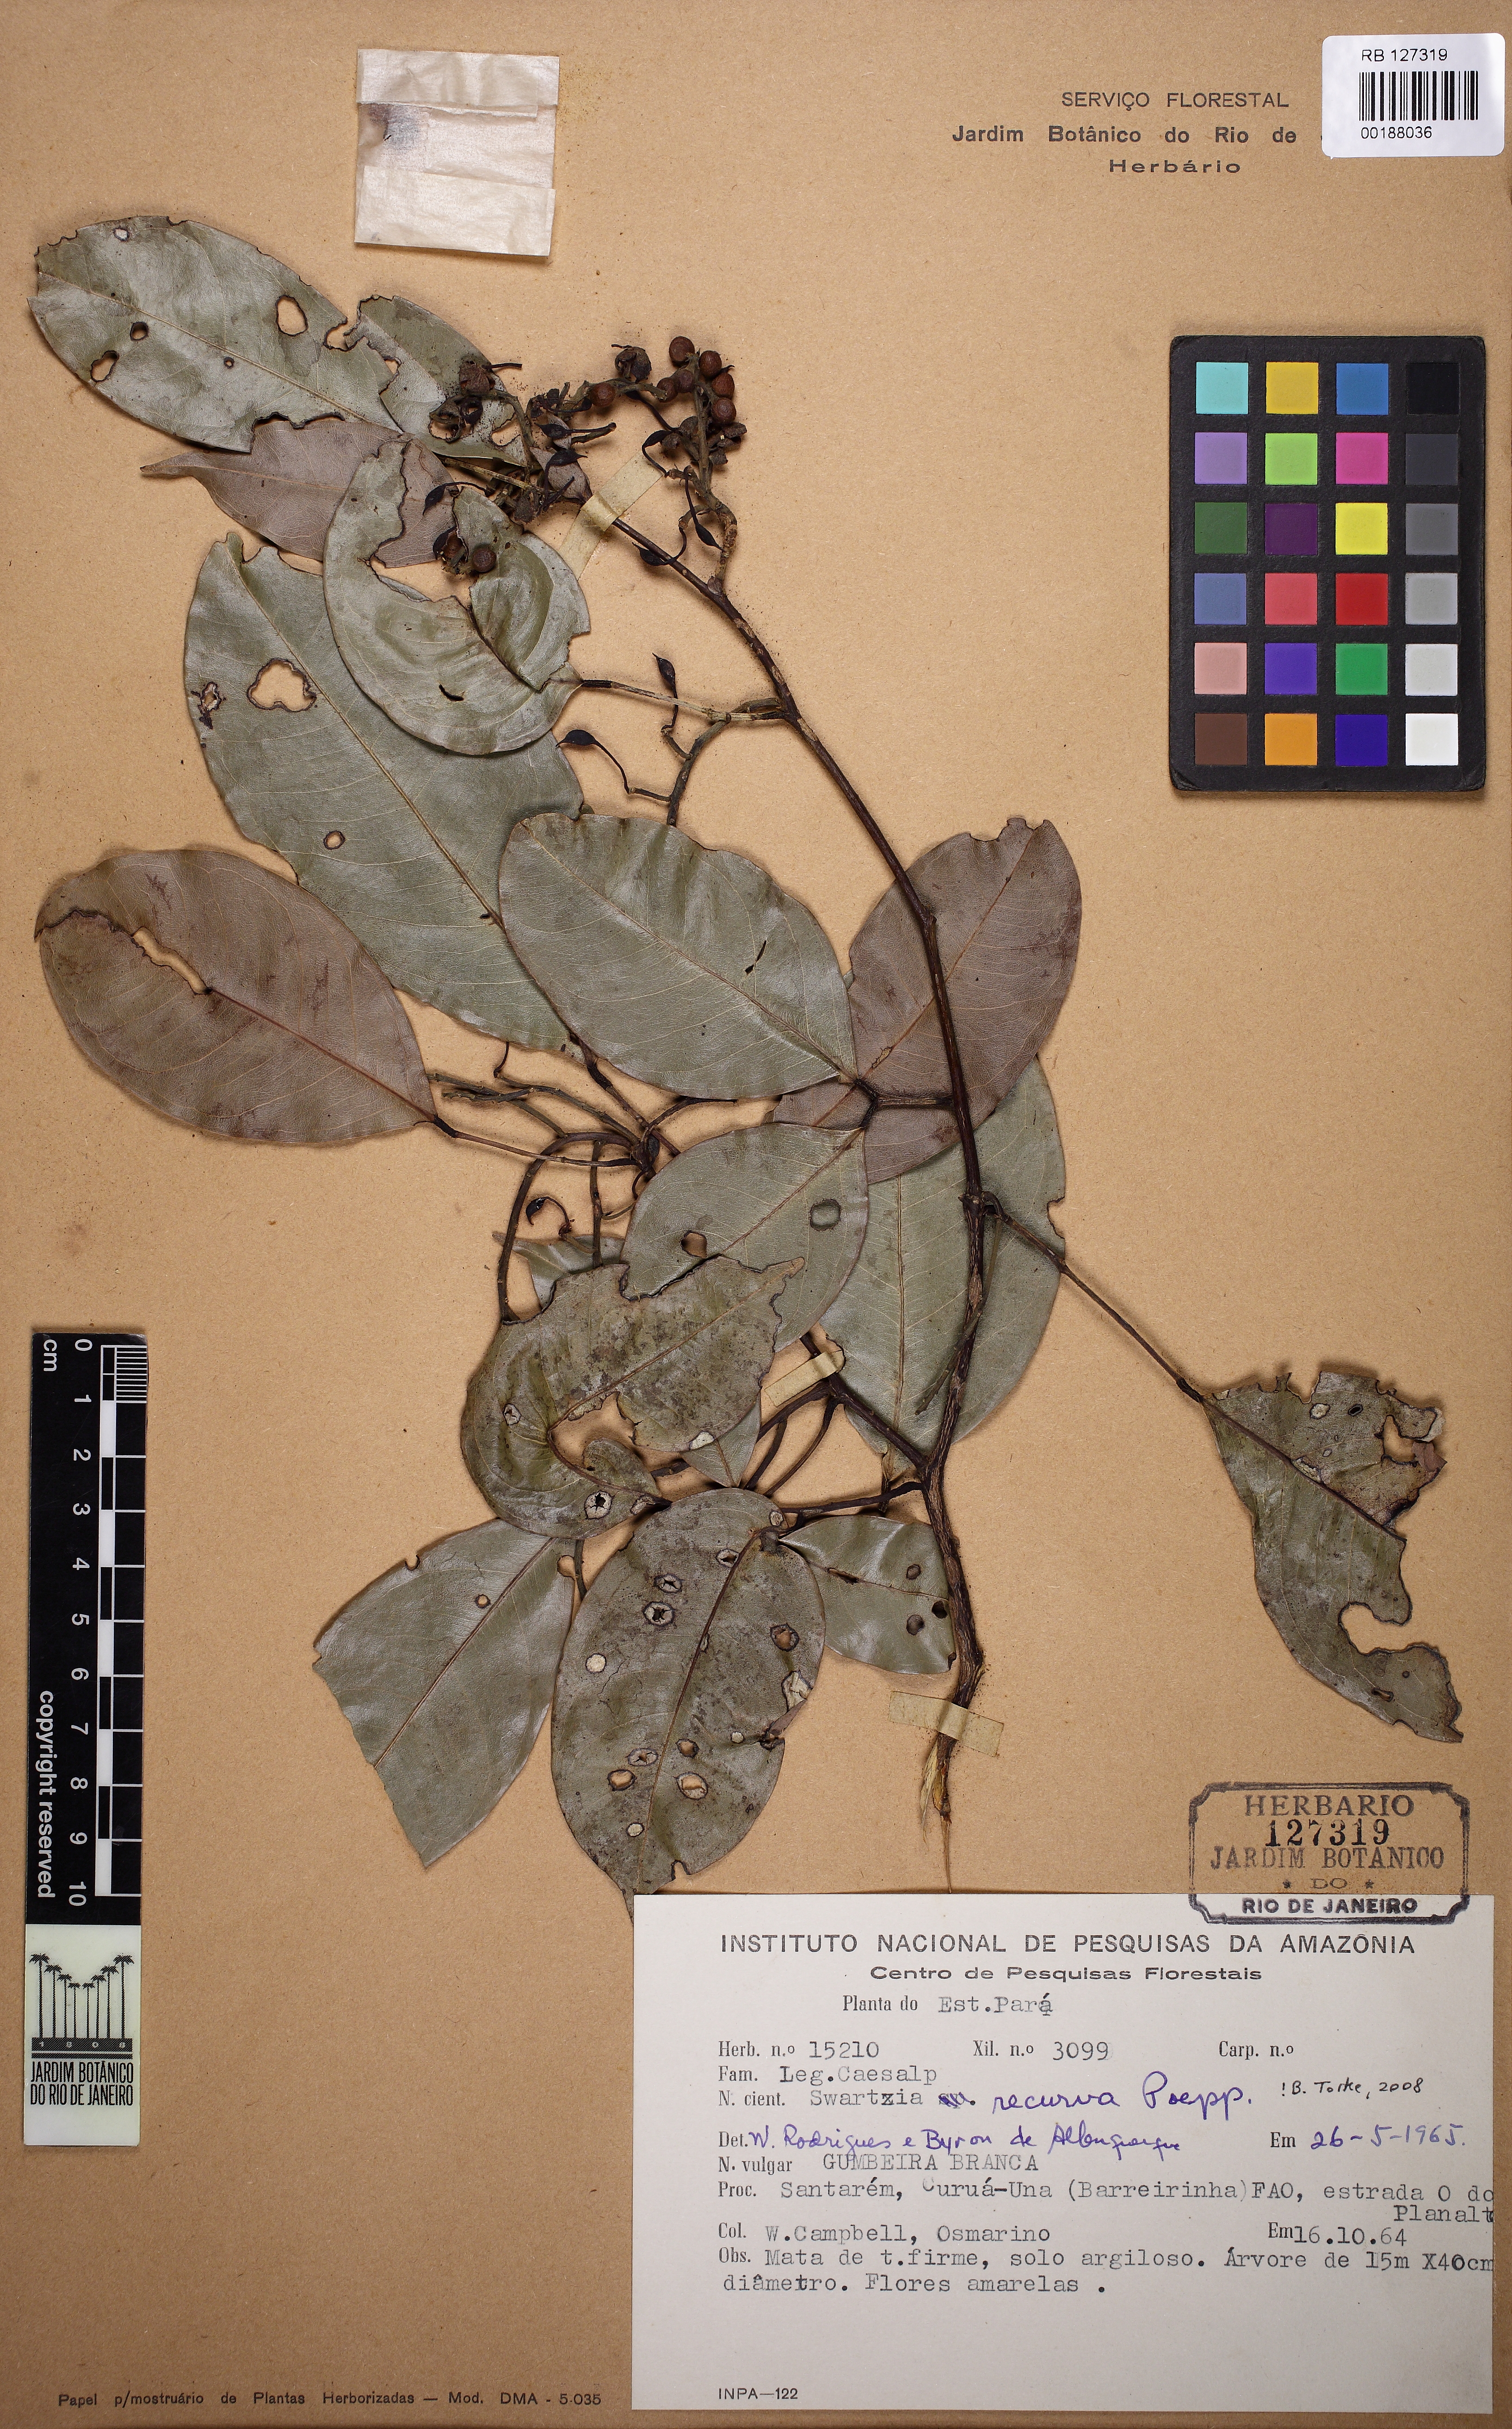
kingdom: Plantae
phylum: Tracheophyta
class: Magnoliopsida
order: Fabales
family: Fabaceae
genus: Swartzia
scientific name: Swartzia recurva
